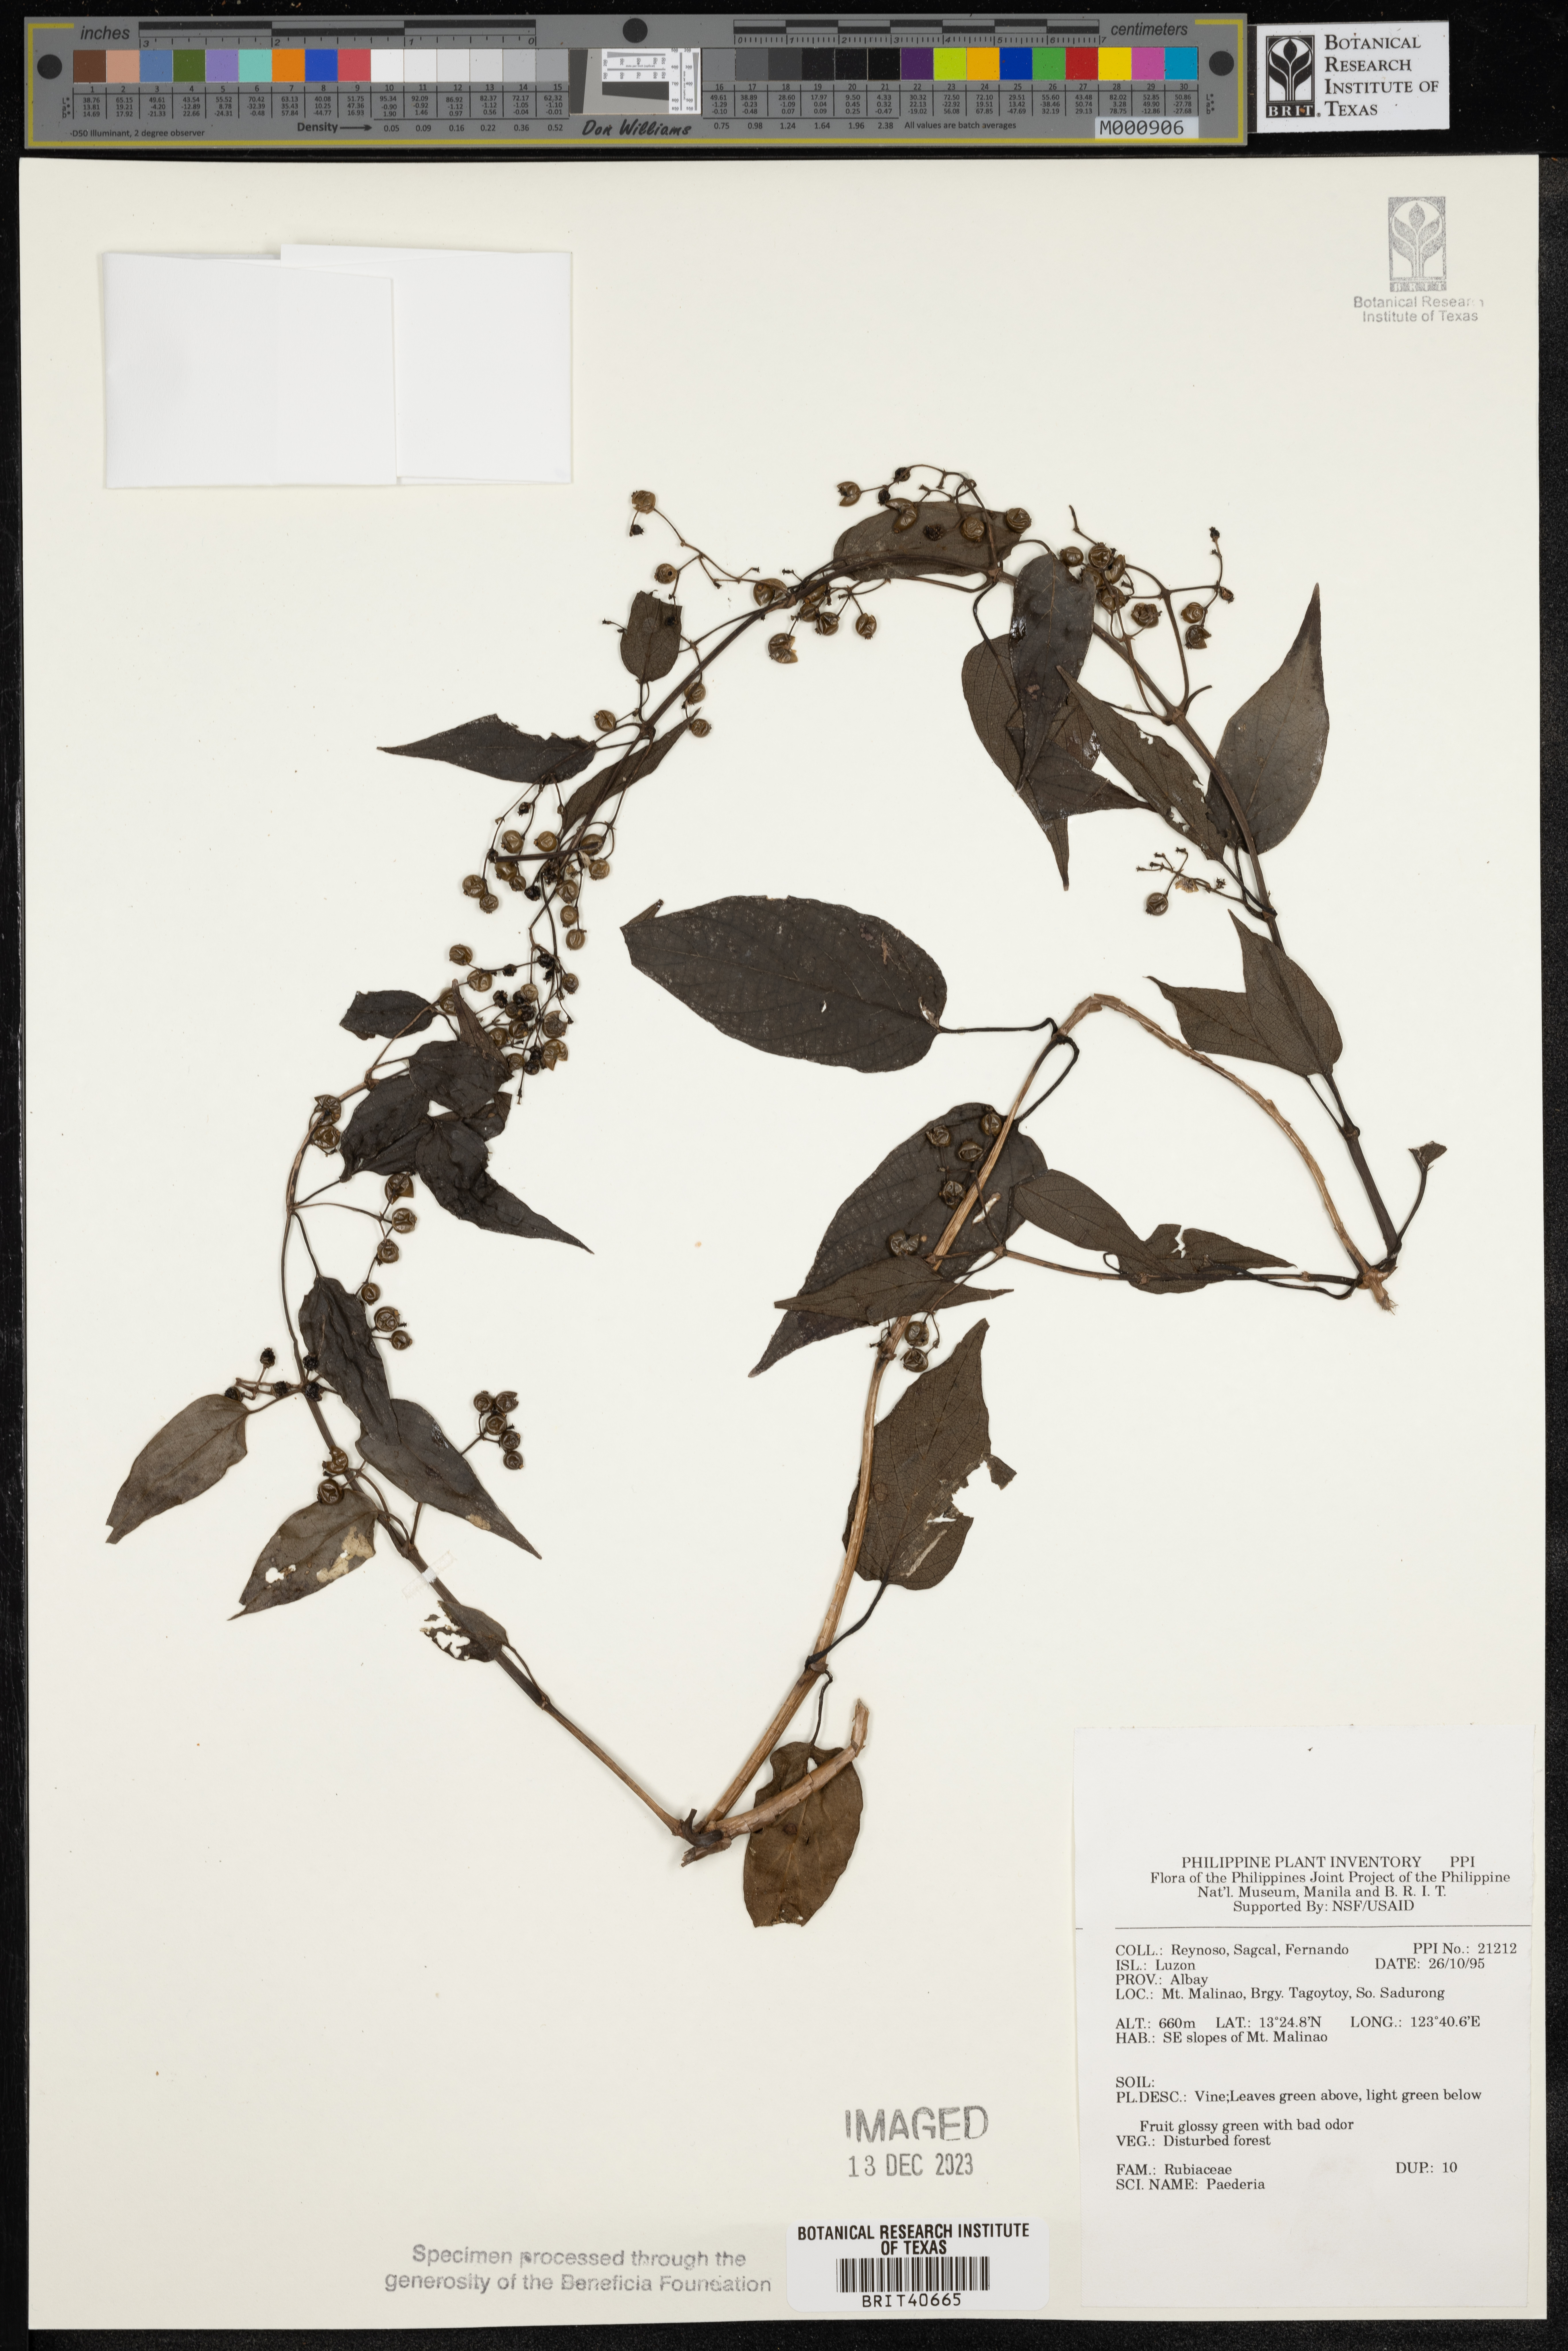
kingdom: Plantae
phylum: Tracheophyta
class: Magnoliopsida
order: Gentianales
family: Rubiaceae
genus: Paederia
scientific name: Paederia
